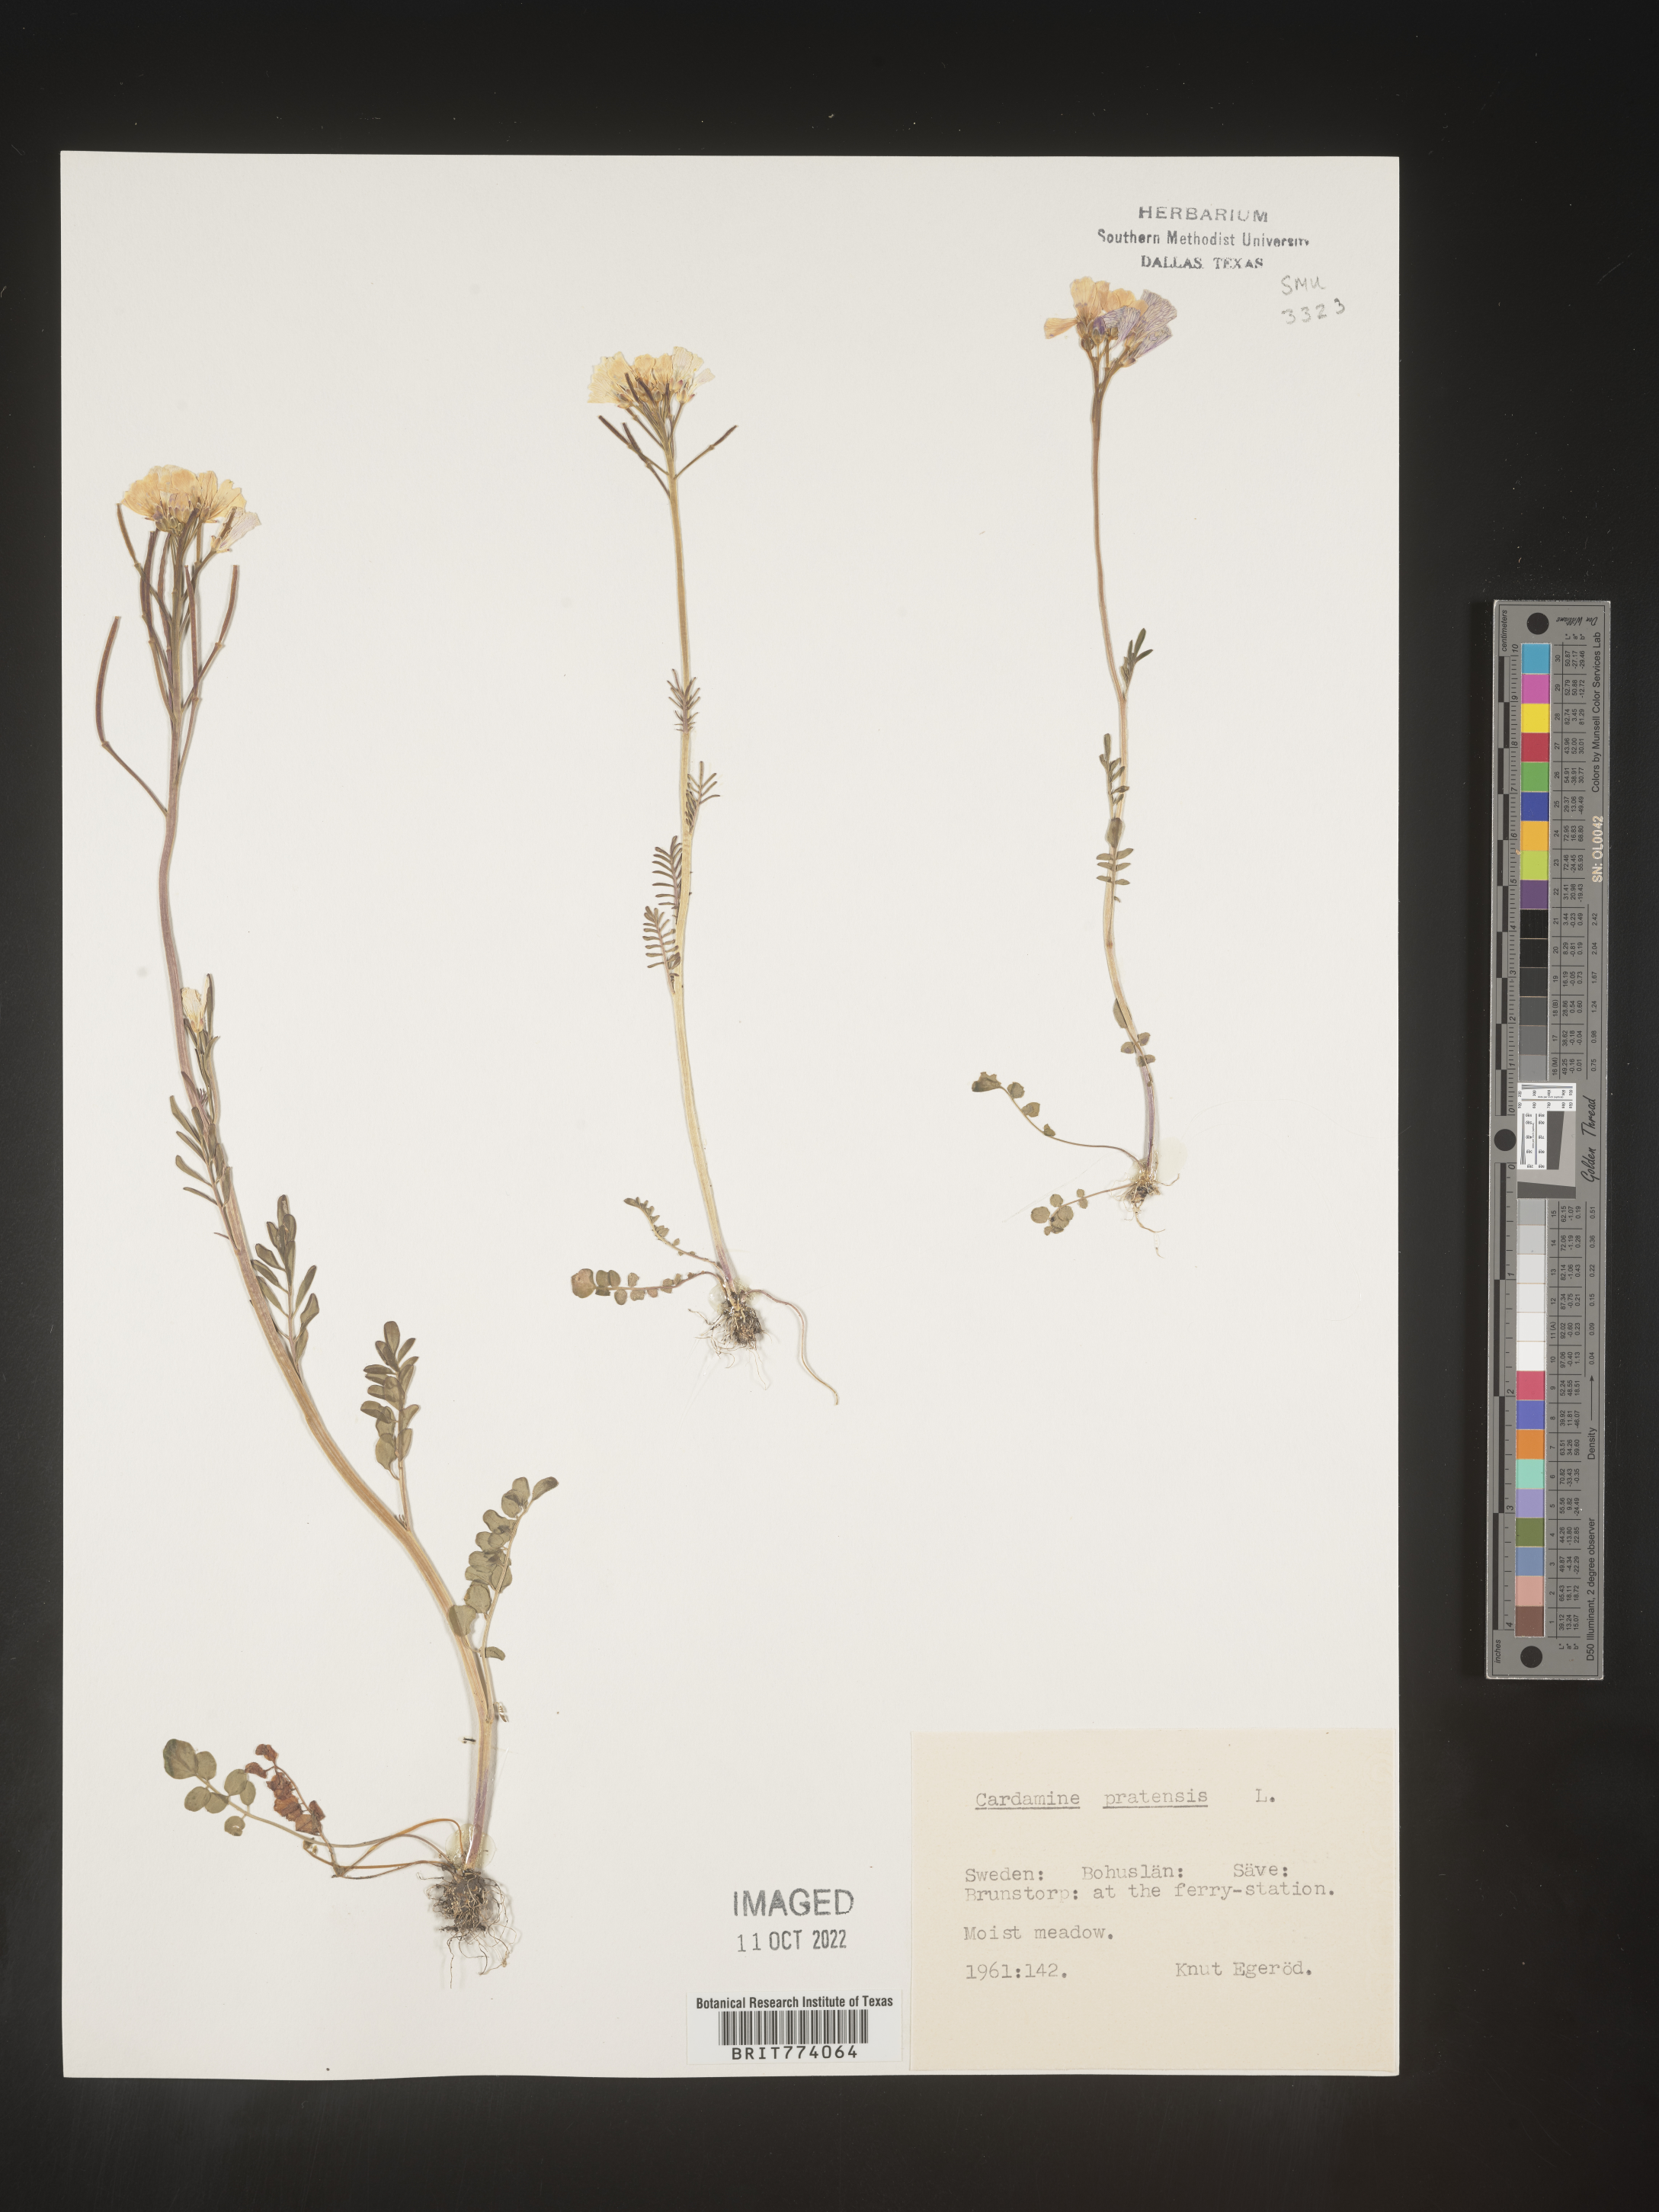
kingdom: Plantae
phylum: Tracheophyta
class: Magnoliopsida
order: Brassicales
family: Brassicaceae
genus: Cardamine
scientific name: Cardamine pratensis
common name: Cuckoo flower
